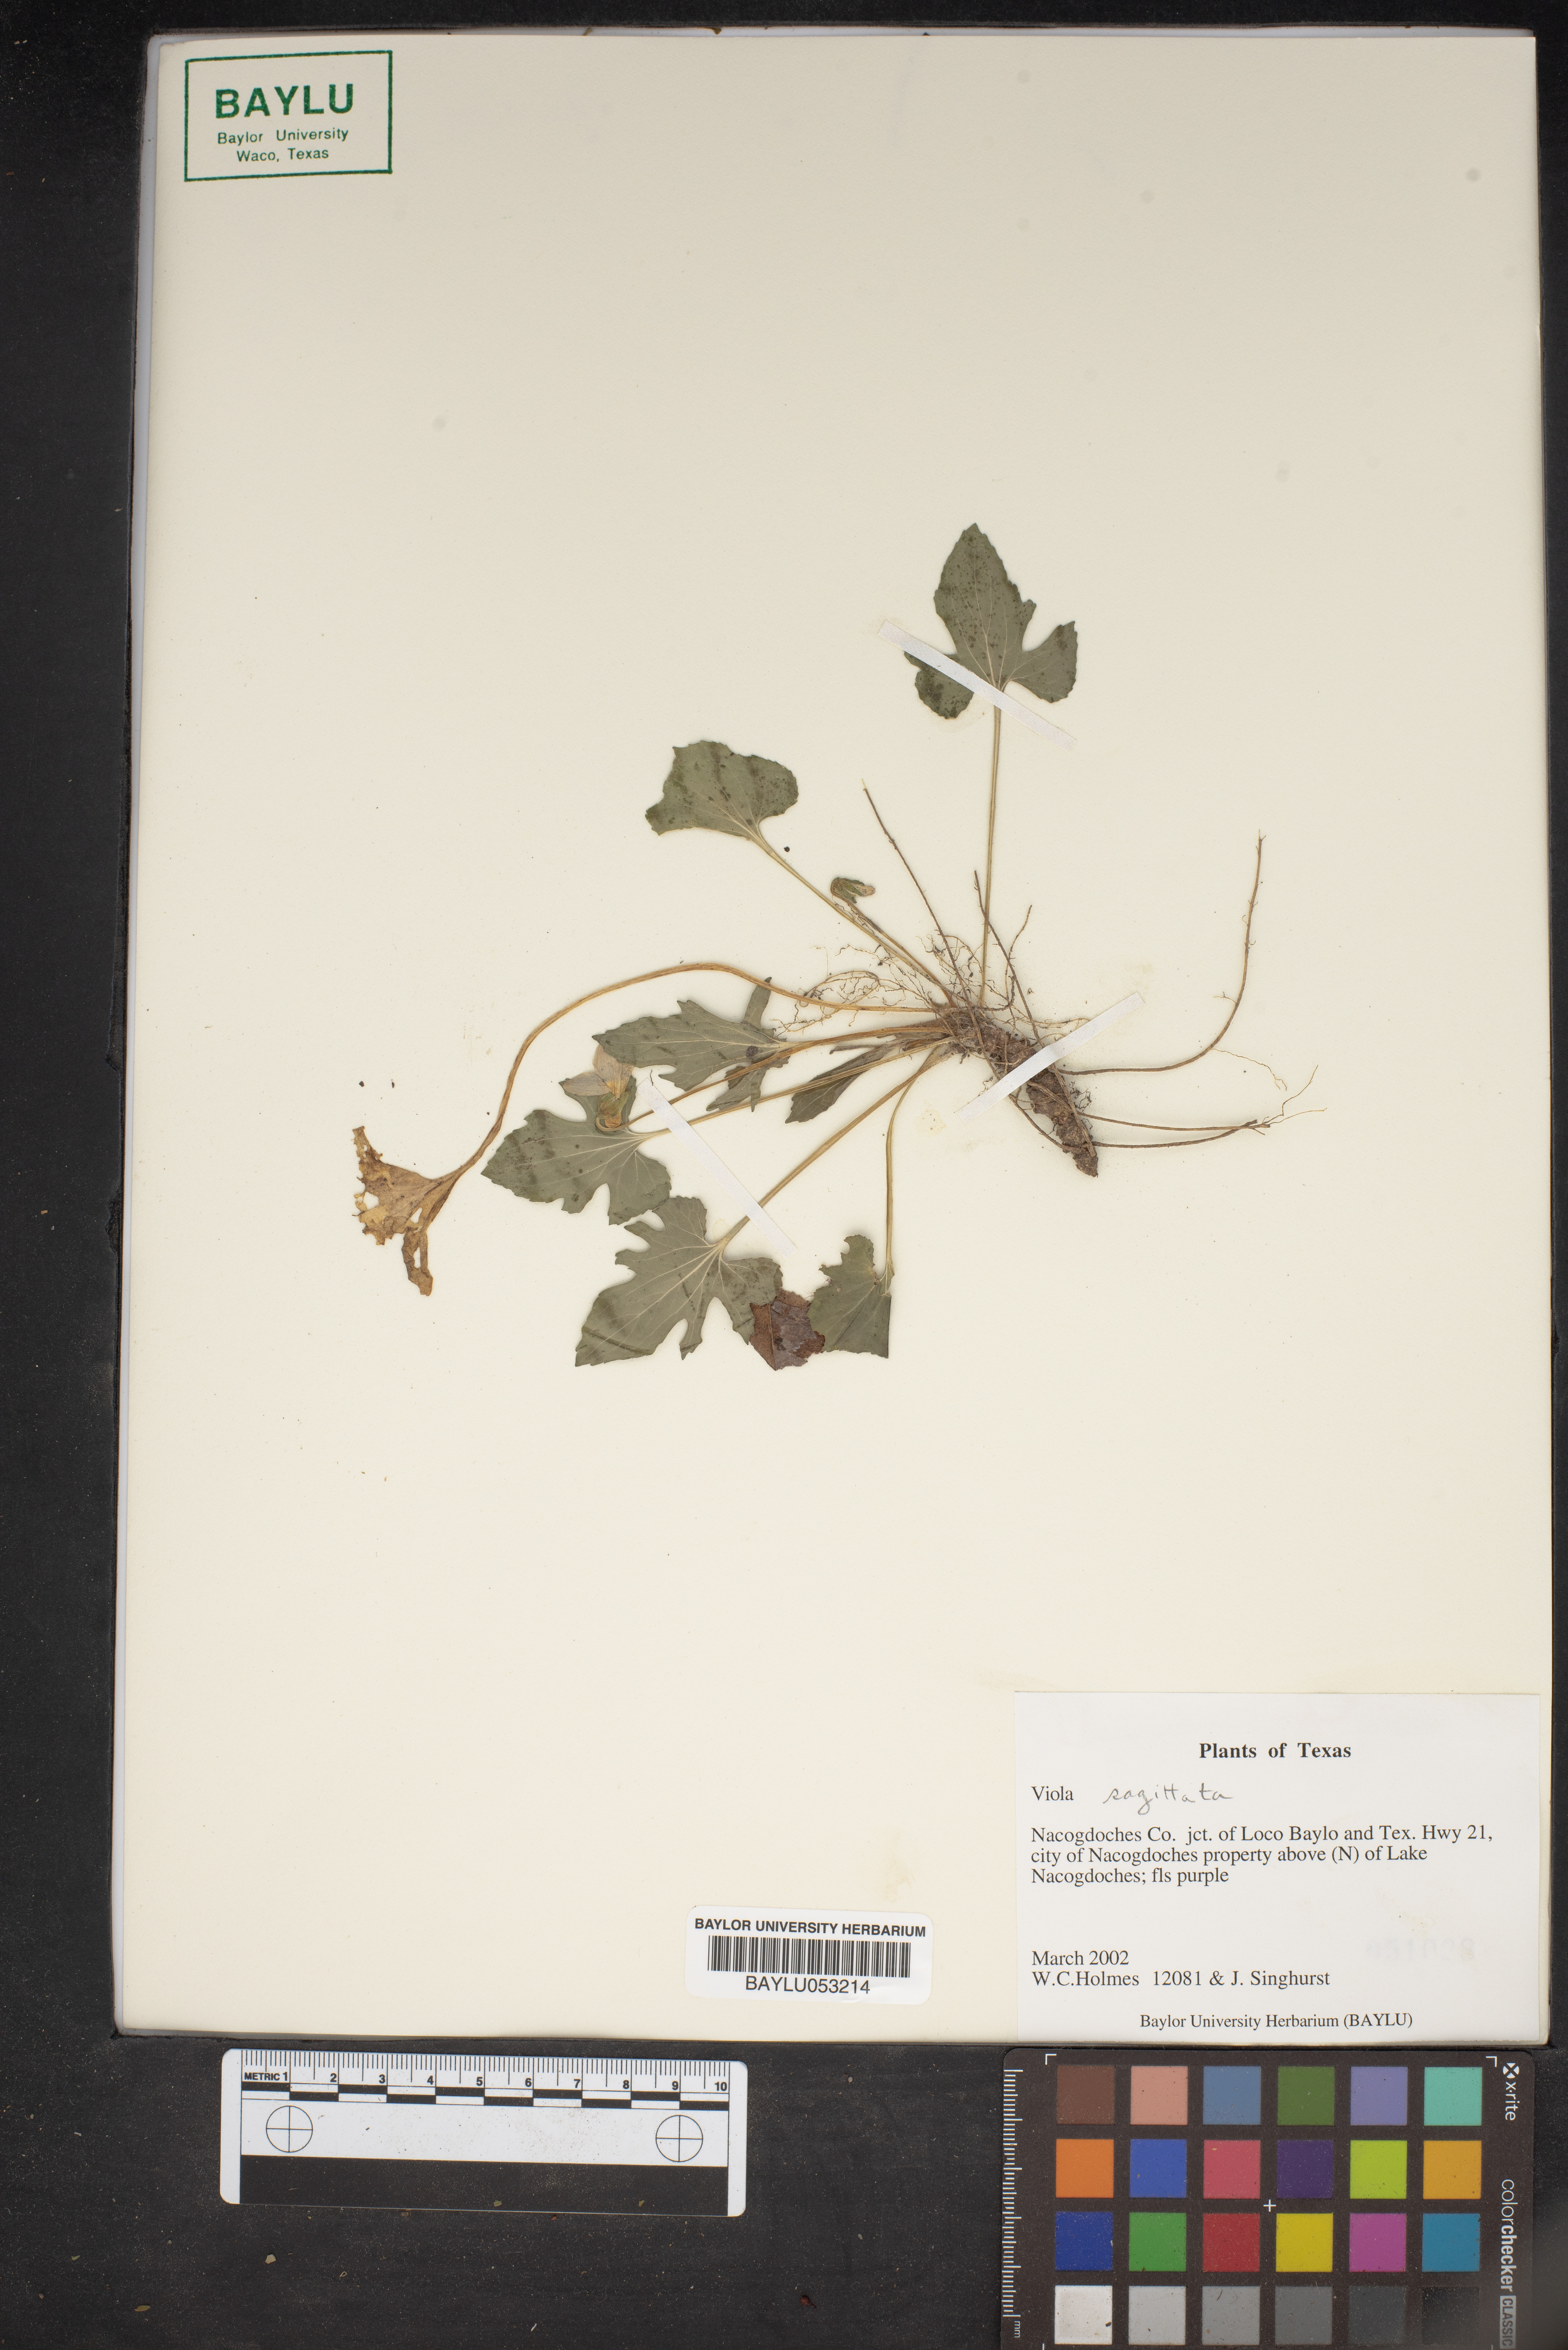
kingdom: Plantae
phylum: Tracheophyta
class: Magnoliopsida
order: Malpighiales
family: Violaceae
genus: Viola
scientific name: Viola sagittata
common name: Arrowhead violet
